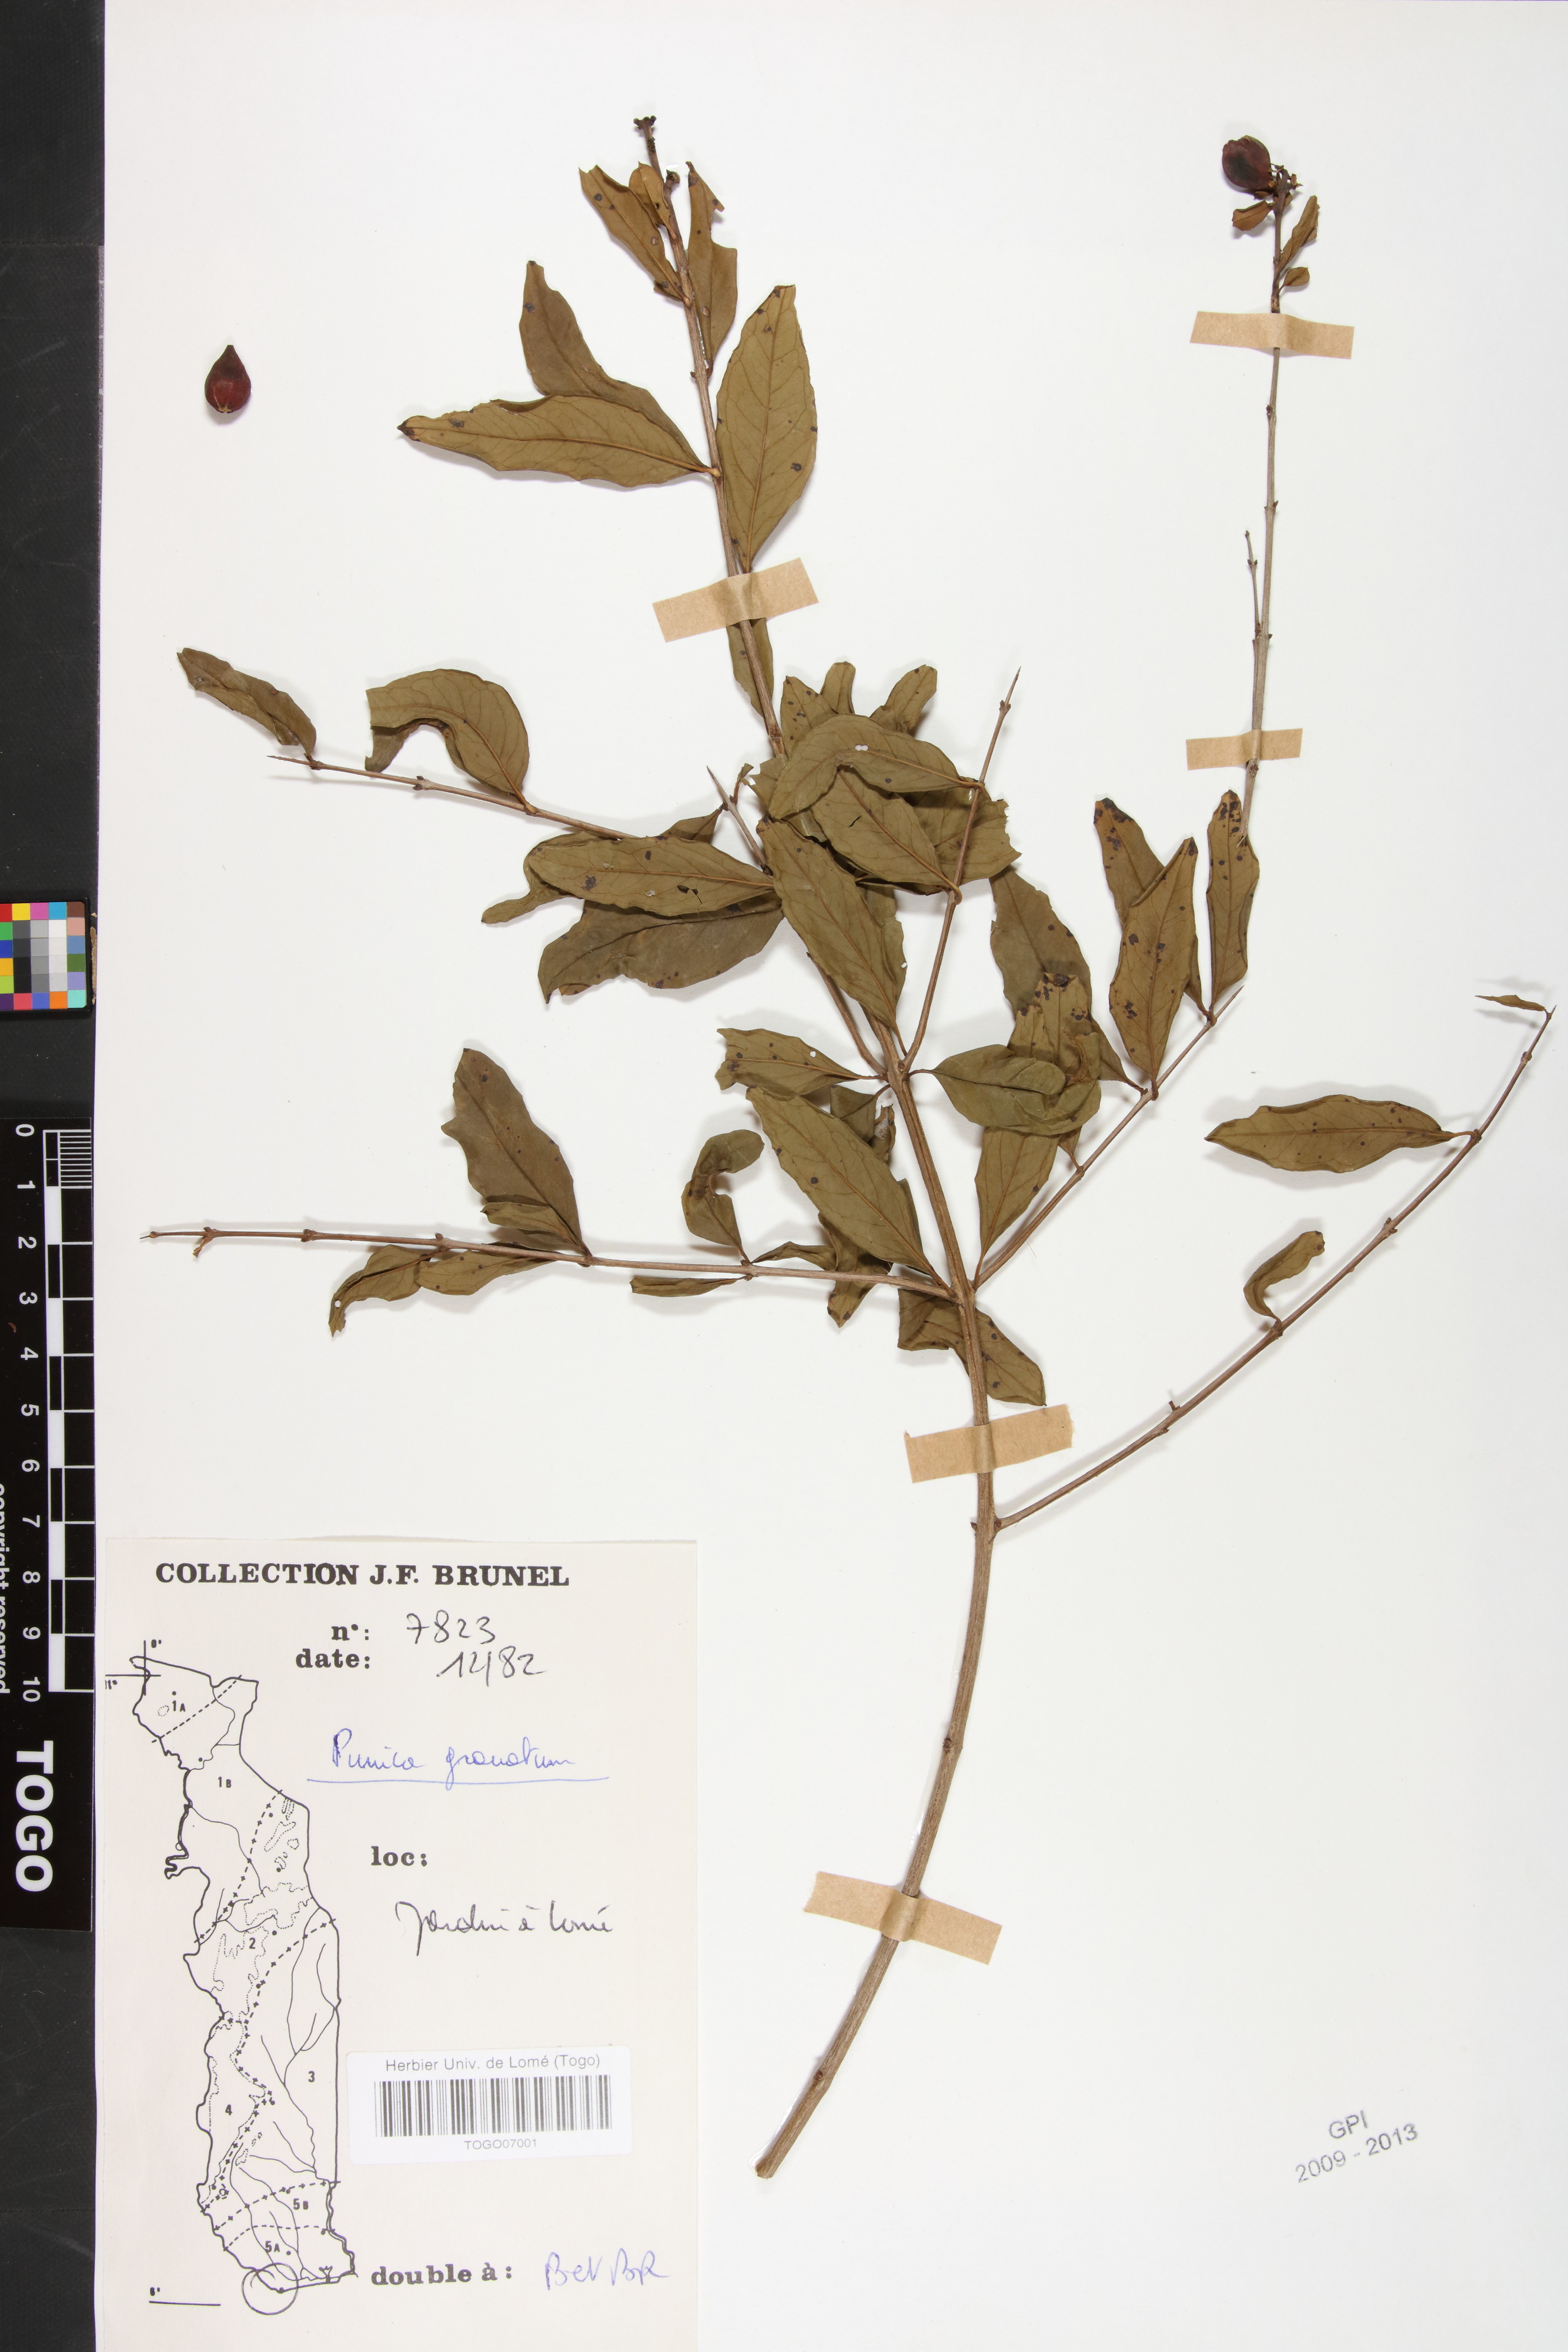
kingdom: Plantae
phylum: Tracheophyta
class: Magnoliopsida
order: Myrtales
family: Lythraceae
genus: Punica
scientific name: Punica granatum
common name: Pomegranate
